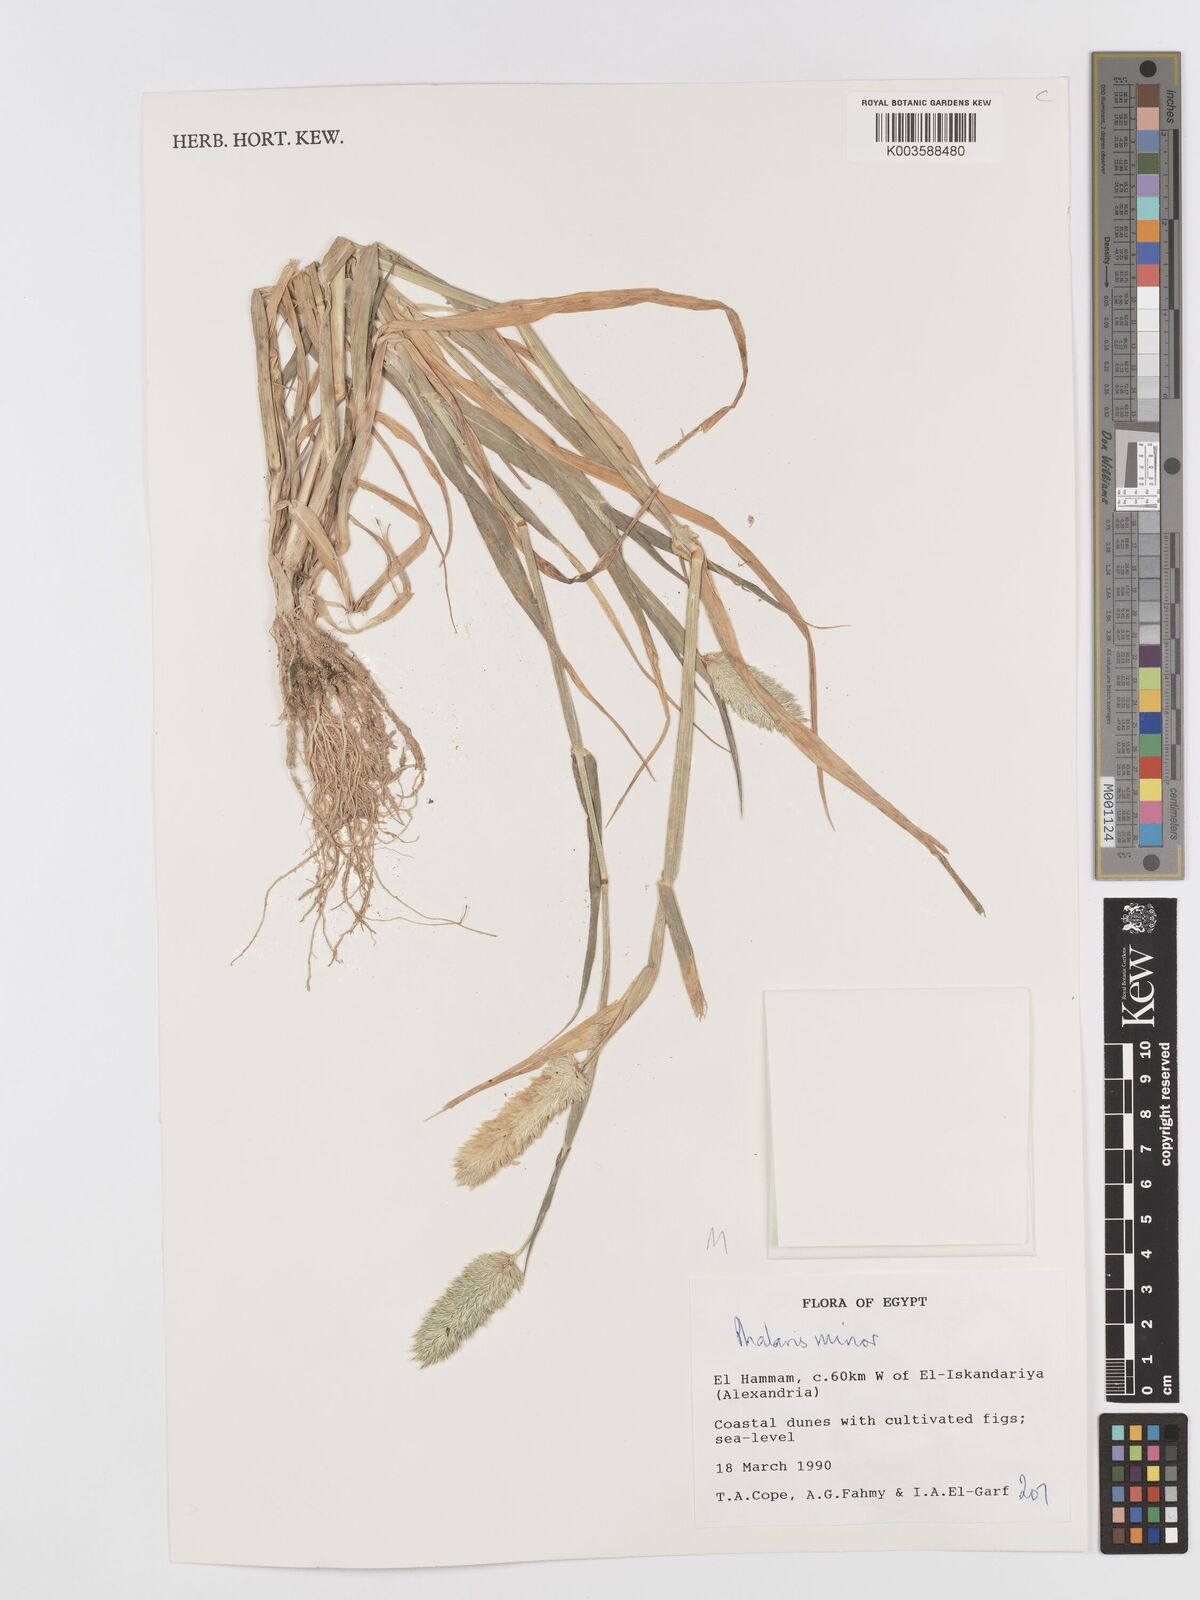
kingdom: Plantae
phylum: Tracheophyta
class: Liliopsida
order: Poales
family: Poaceae
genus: Phalaris
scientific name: Phalaris minor
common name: Littleseed canarygrass
